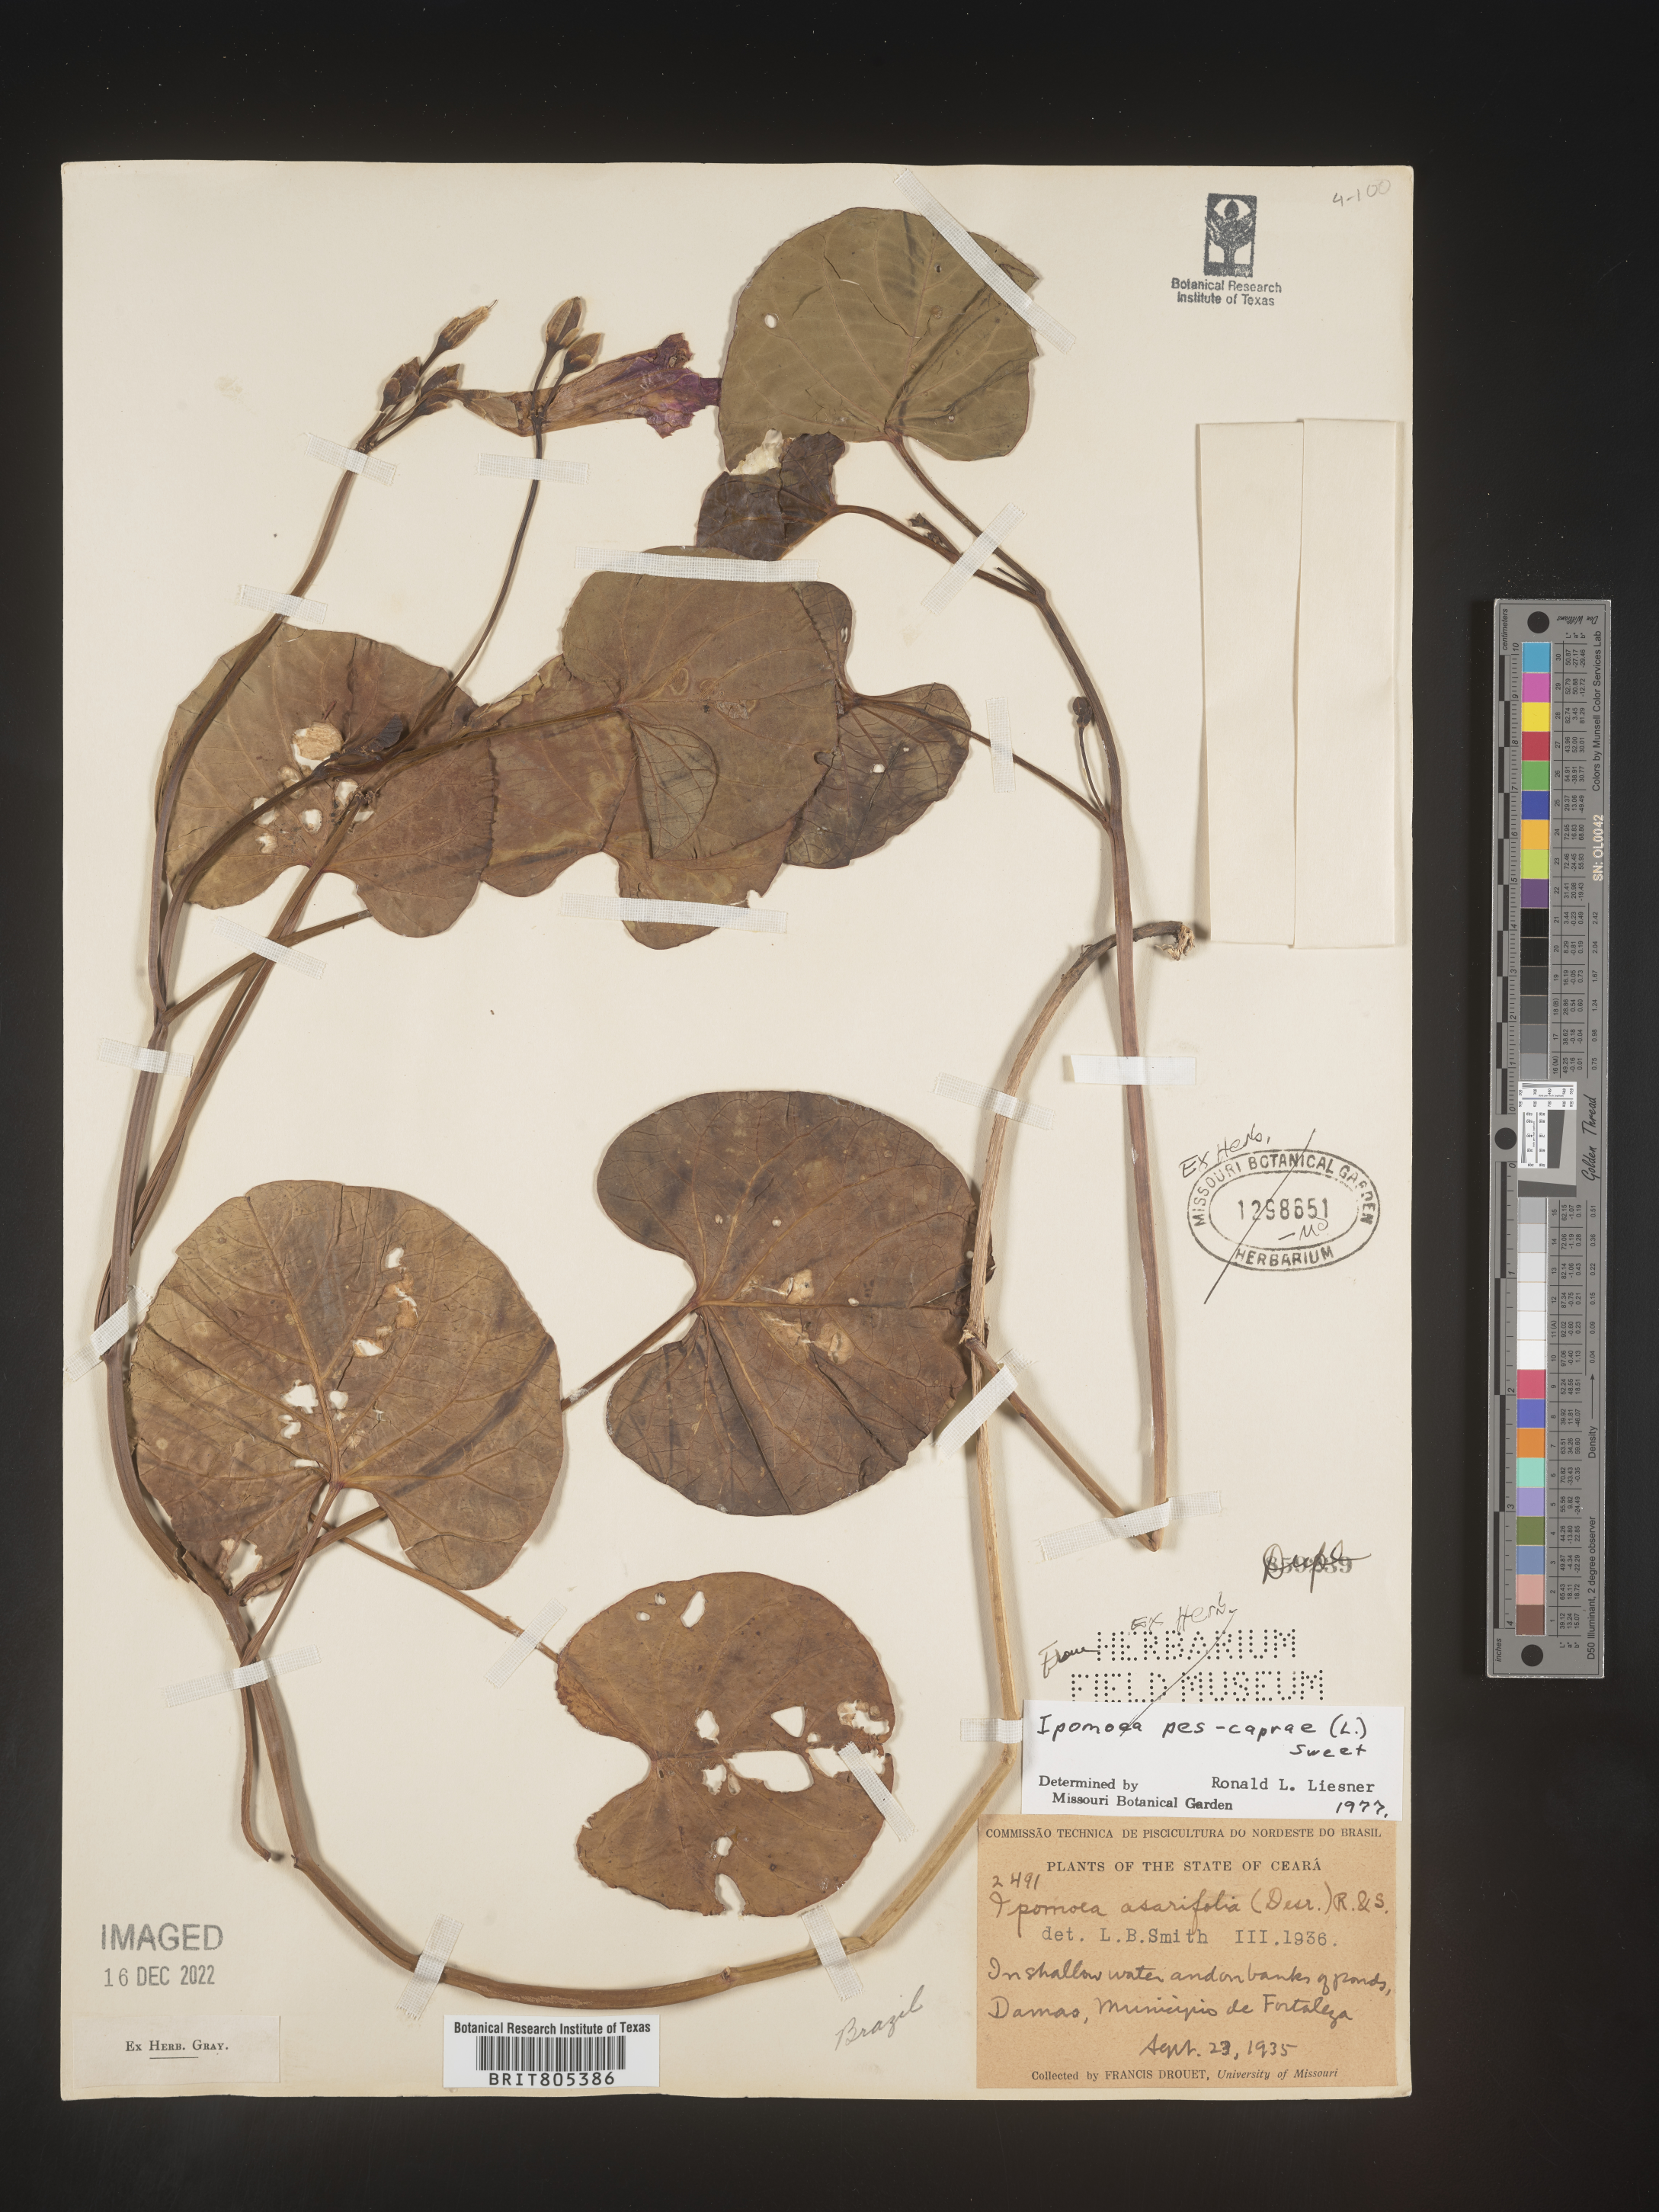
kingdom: Plantae
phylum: Tracheophyta
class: Magnoliopsida
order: Solanales
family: Convolvulaceae
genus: Ipomoea
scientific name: Ipomoea
